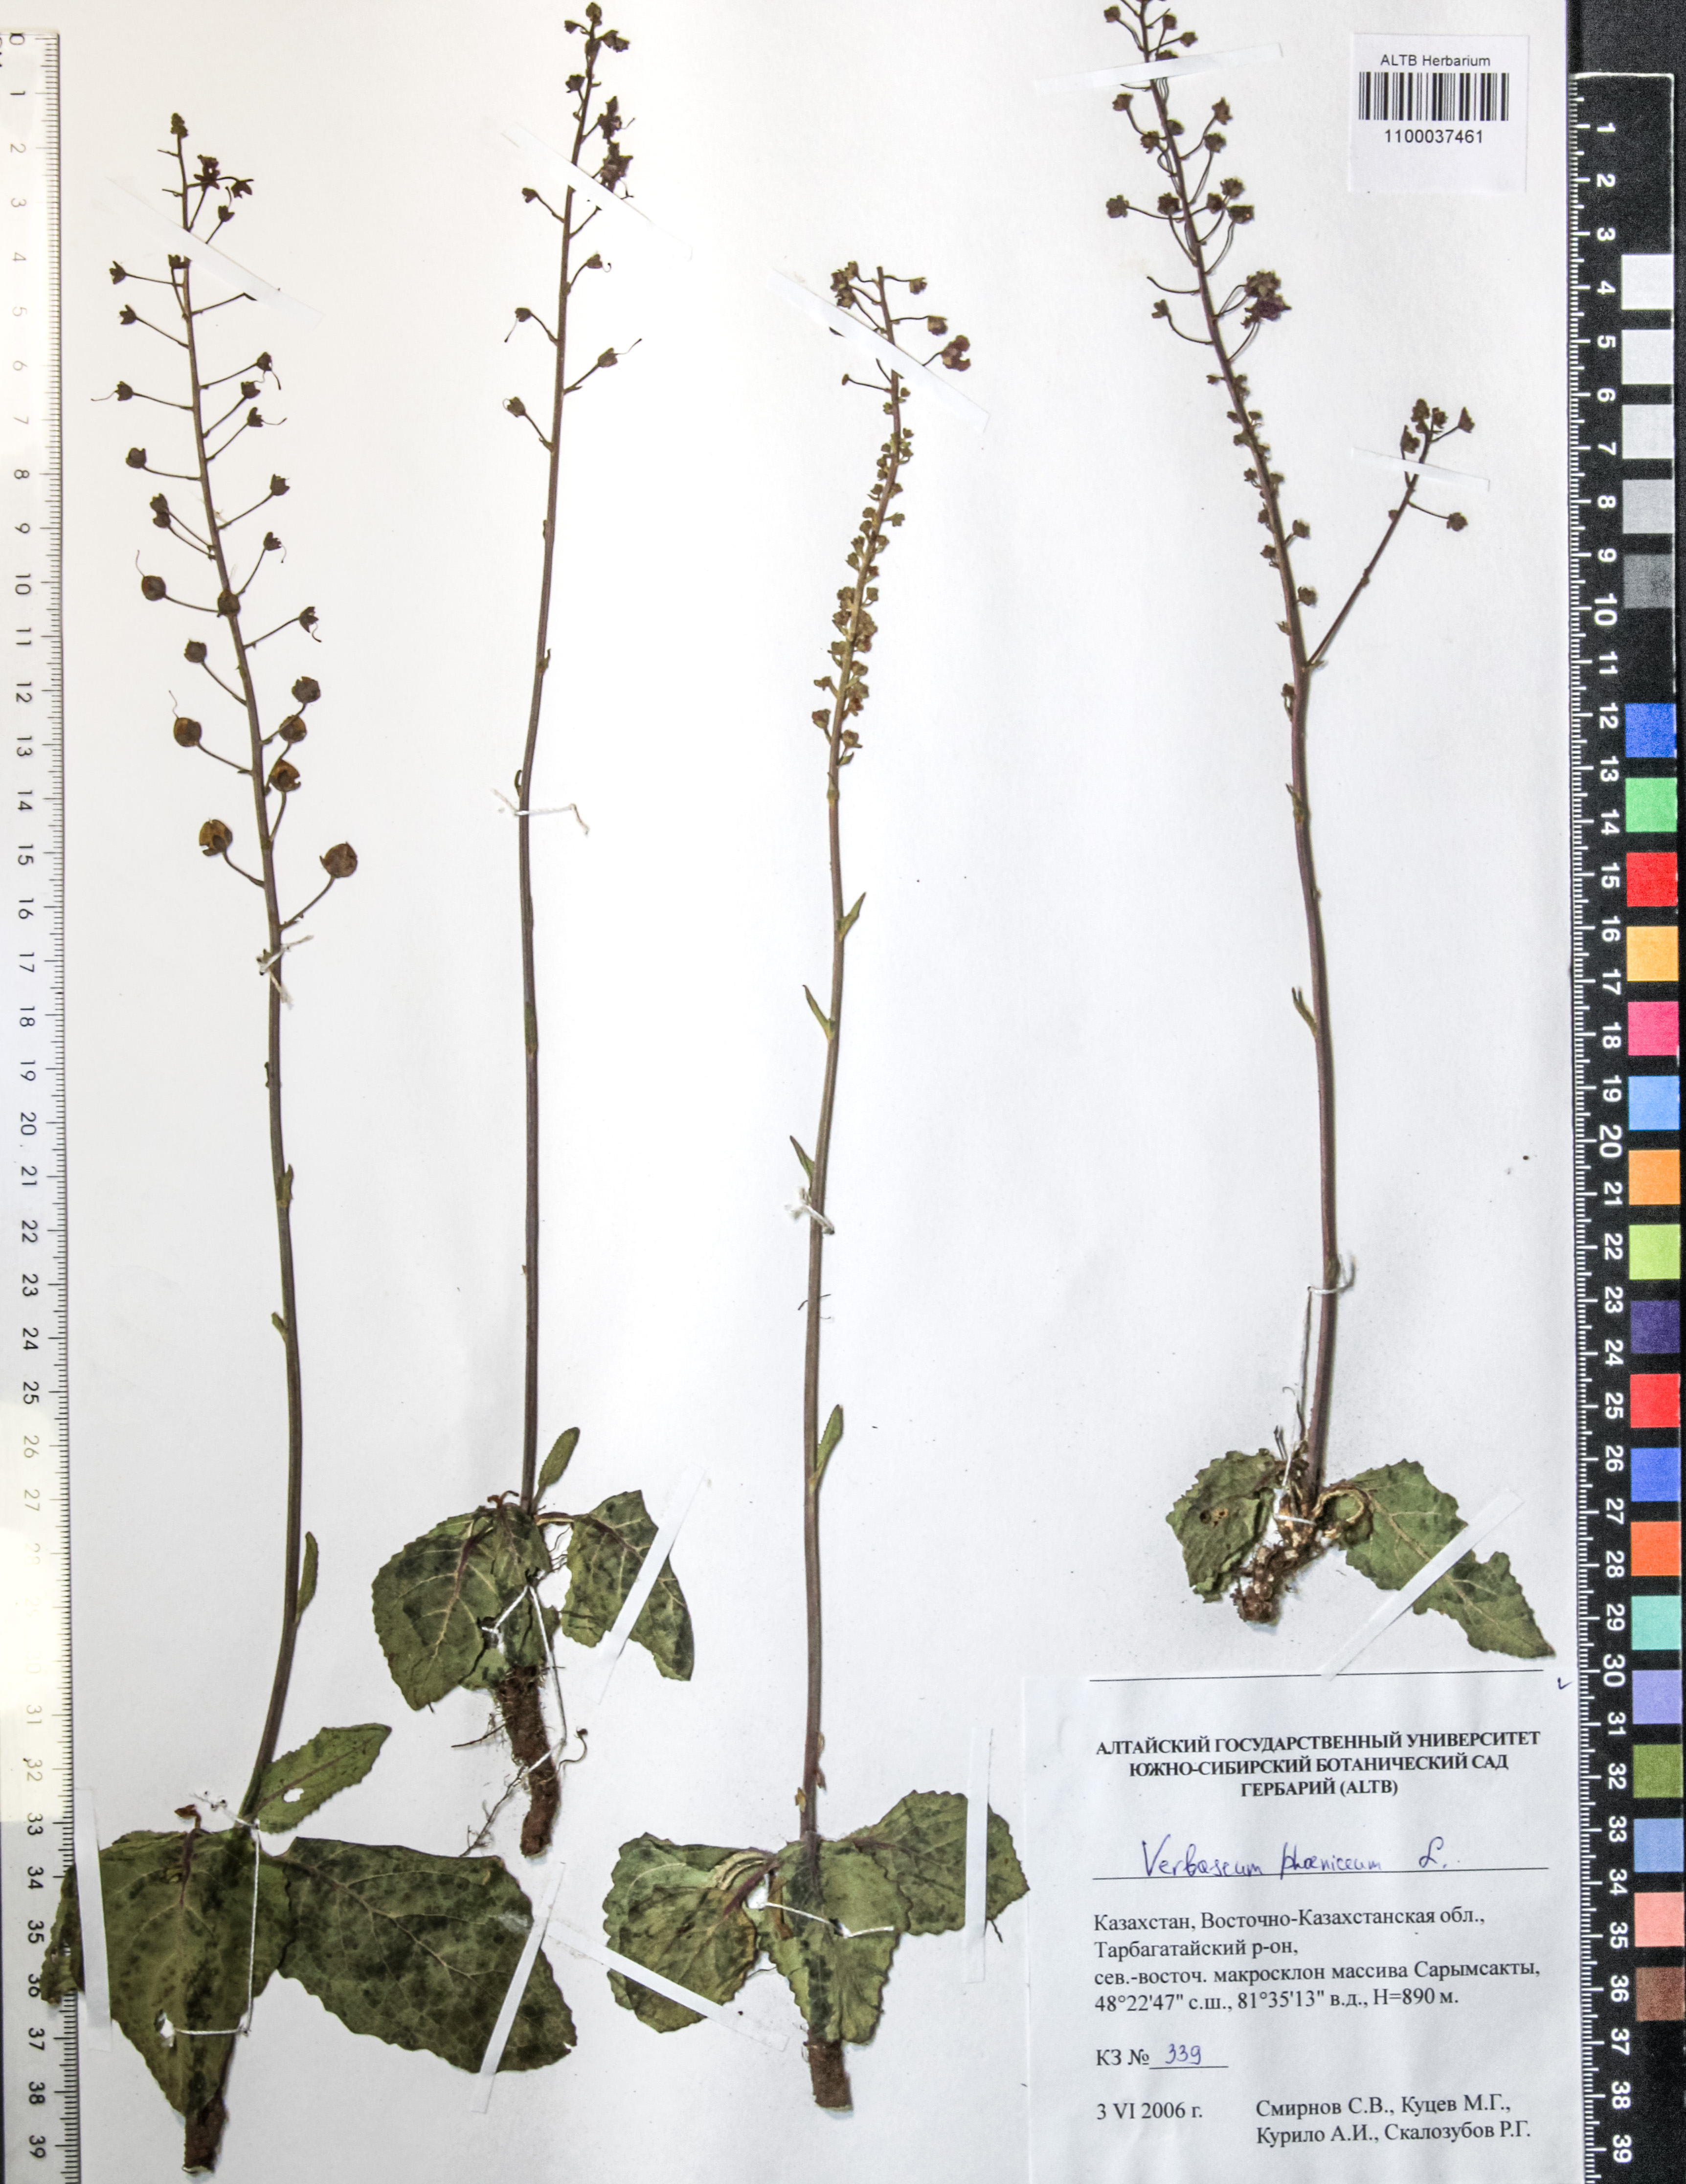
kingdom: Plantae
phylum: Tracheophyta
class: Magnoliopsida
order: Lamiales
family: Scrophulariaceae
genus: Verbascum
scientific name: Verbascum phoeniceum
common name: Purple mullein
